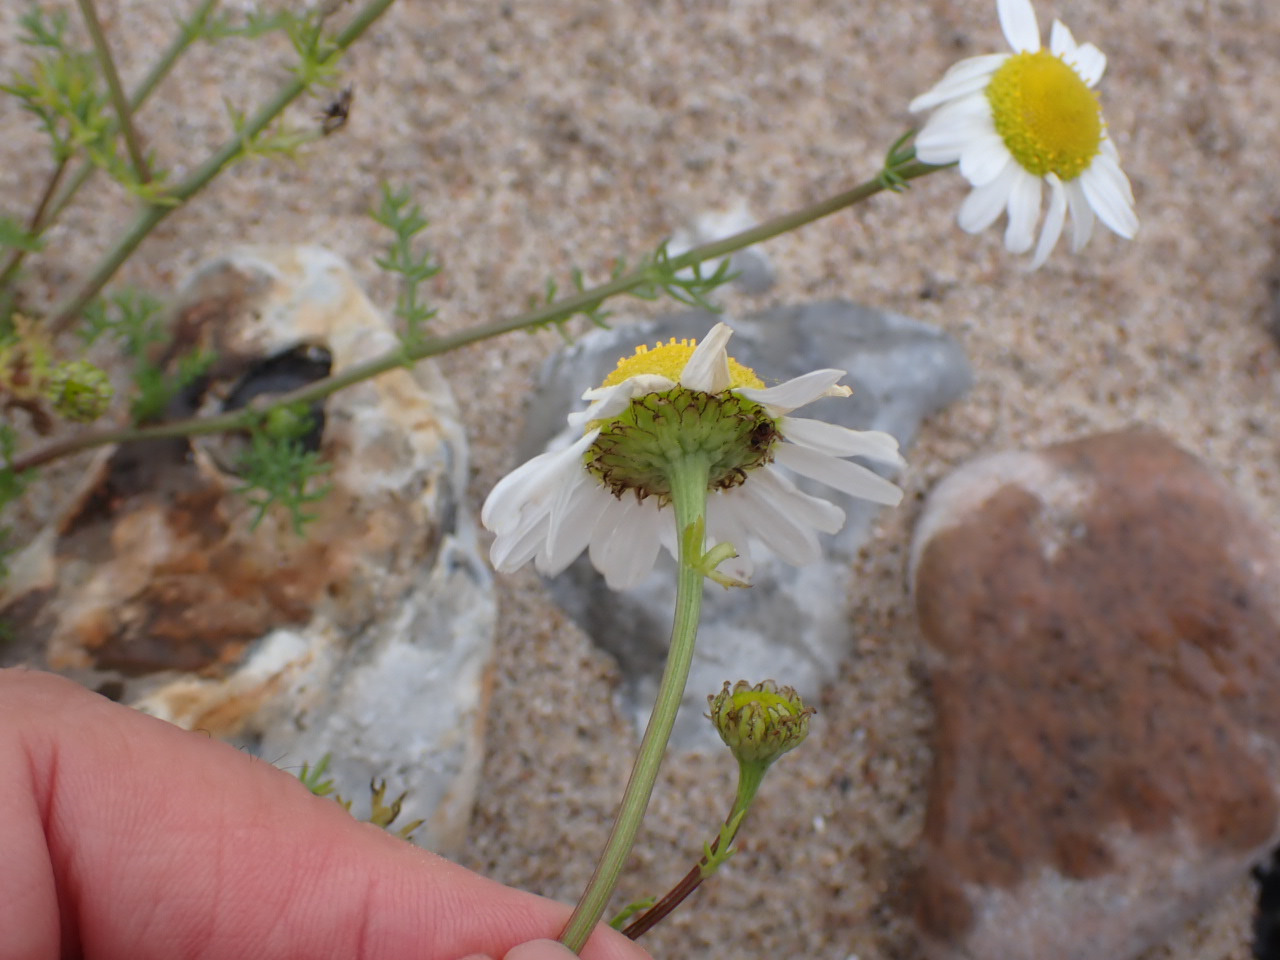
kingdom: Plantae
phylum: Tracheophyta
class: Magnoliopsida
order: Asterales
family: Asteraceae
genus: Tripleurospermum
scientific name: Tripleurospermum maritimum
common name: Strand-kamille
